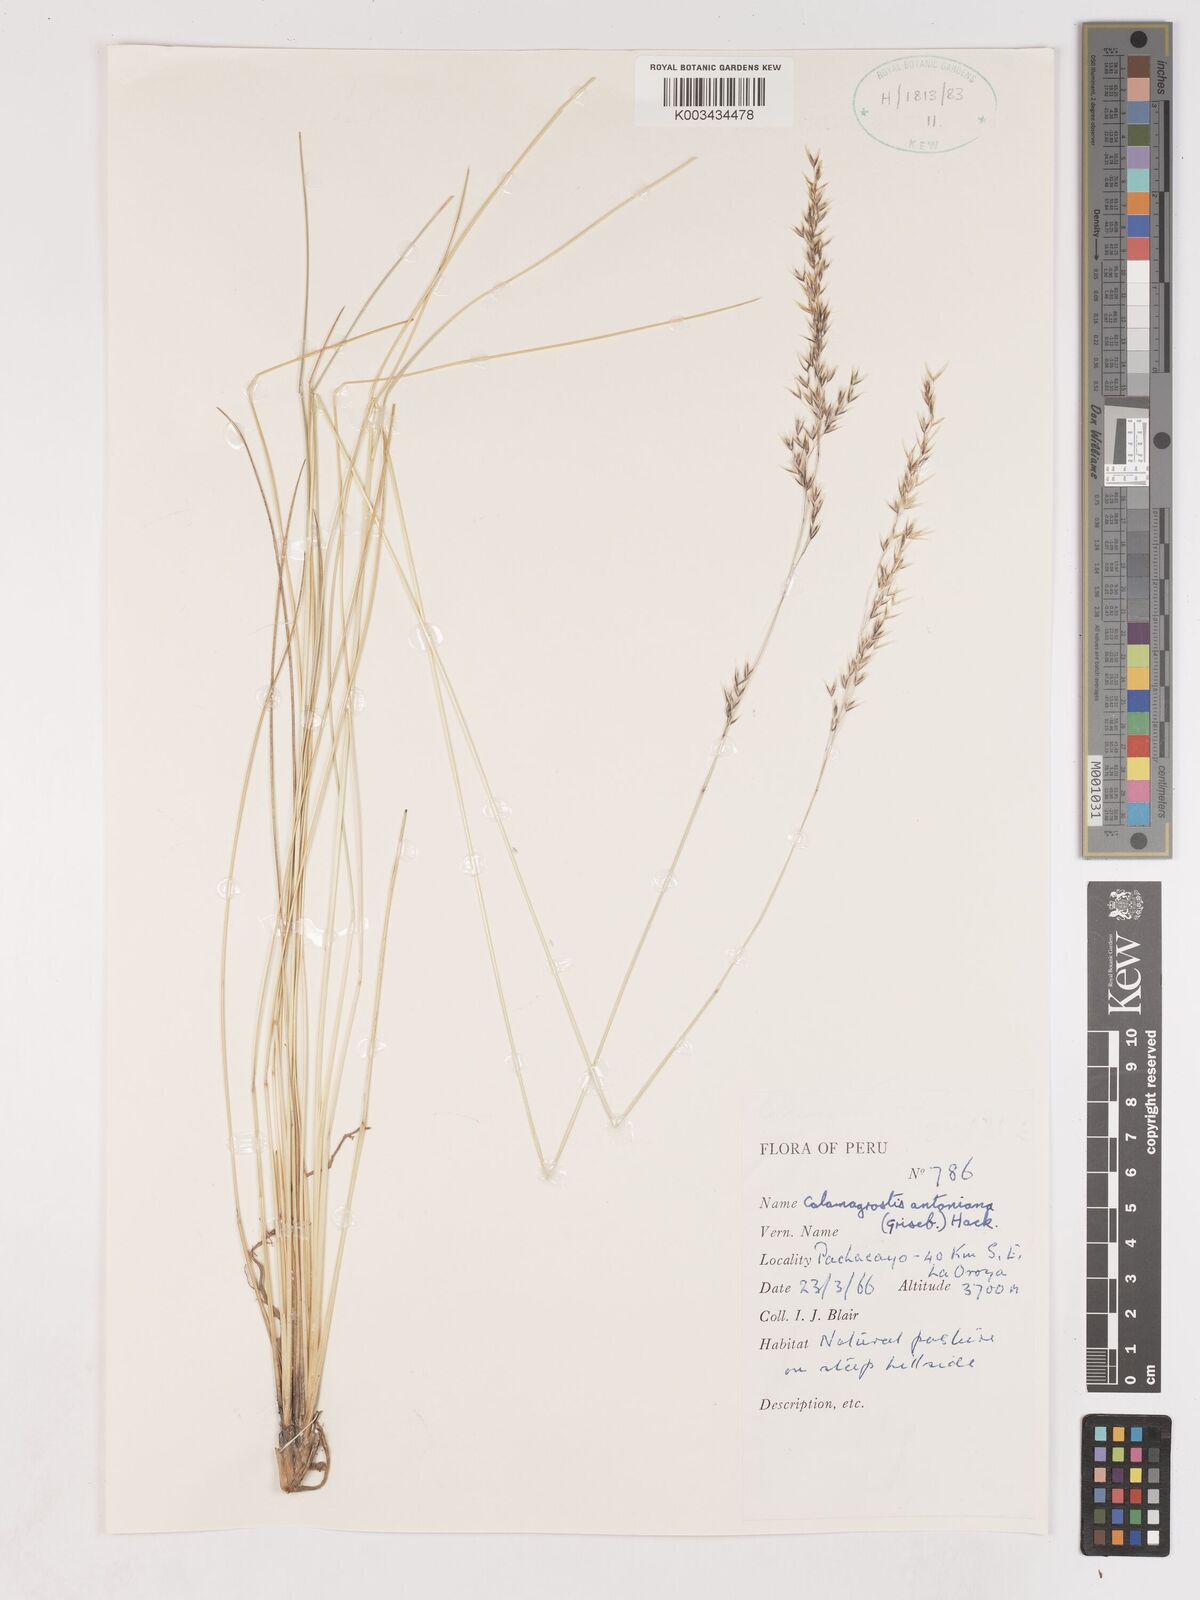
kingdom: Plantae
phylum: Tracheophyta
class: Liliopsida
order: Poales
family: Poaceae
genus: Cinnagrostis
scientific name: Cinnagrostis rigida
